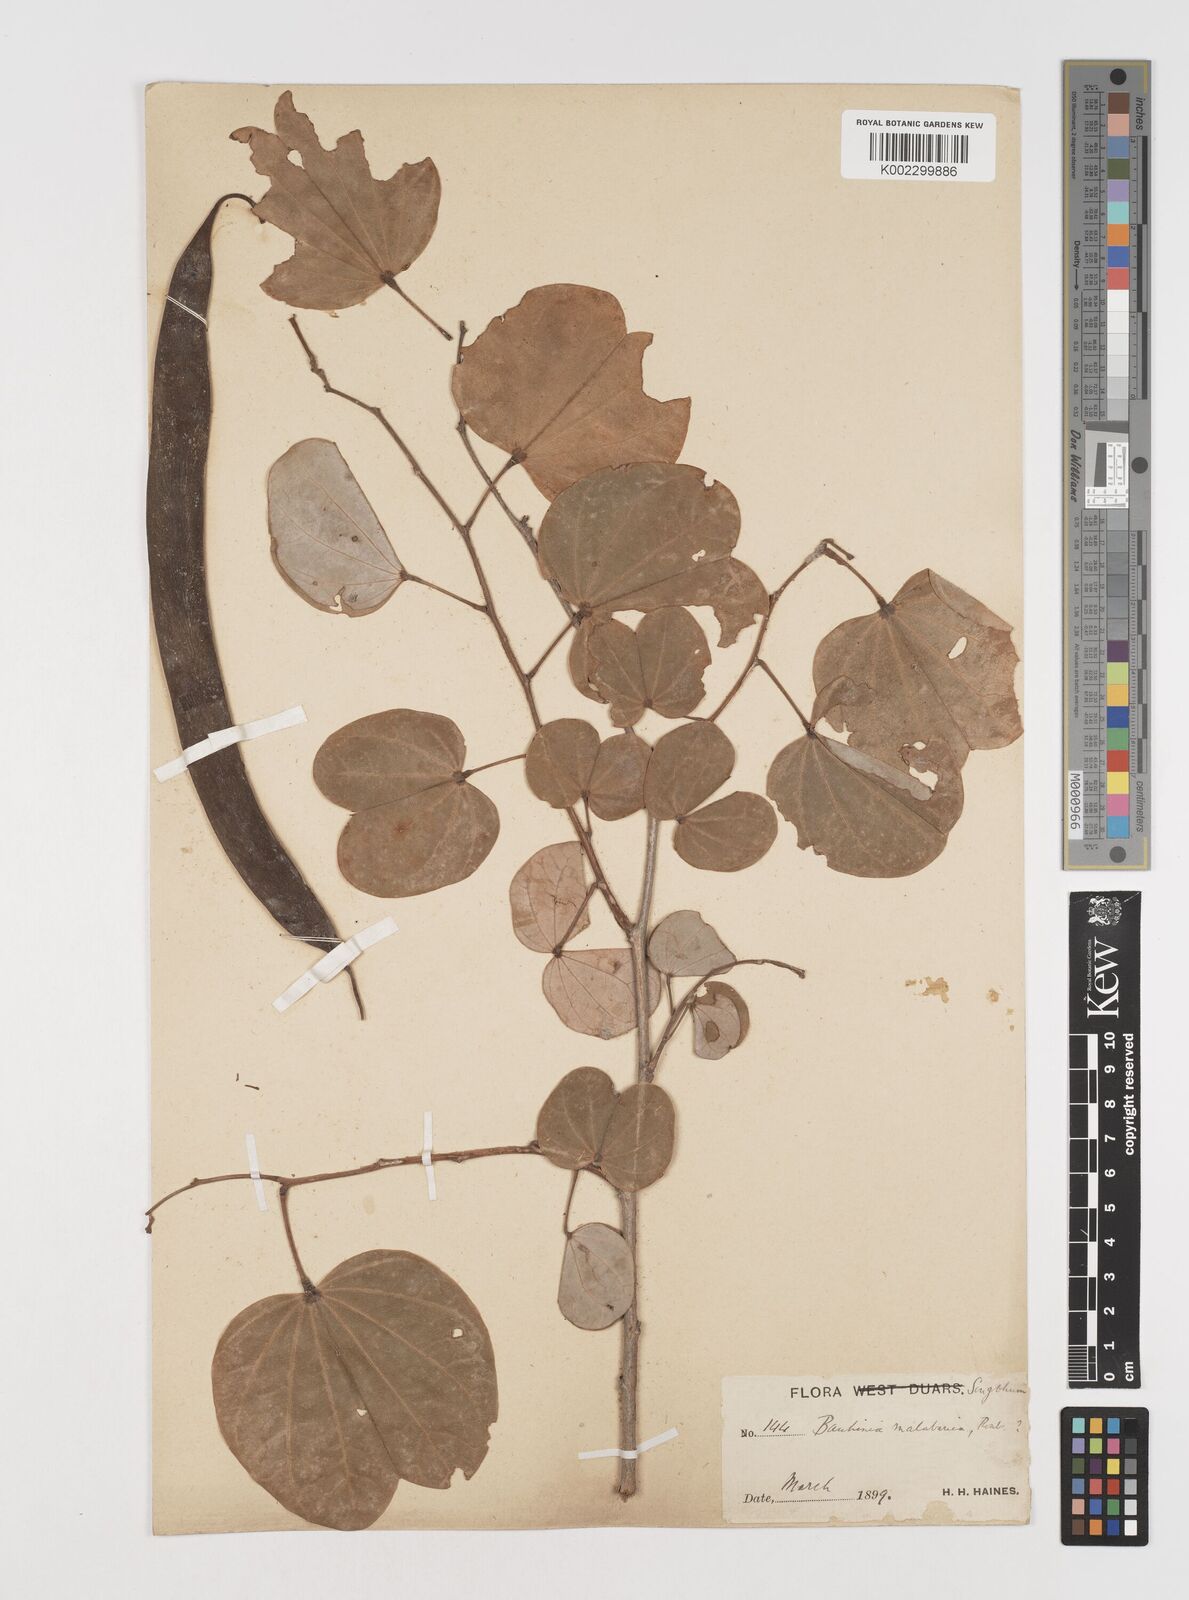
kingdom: Plantae
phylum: Tracheophyta
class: Magnoliopsida
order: Fabales
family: Fabaceae
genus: Piliostigma
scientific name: Piliostigma malabaricum
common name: Malabar bauhinia
